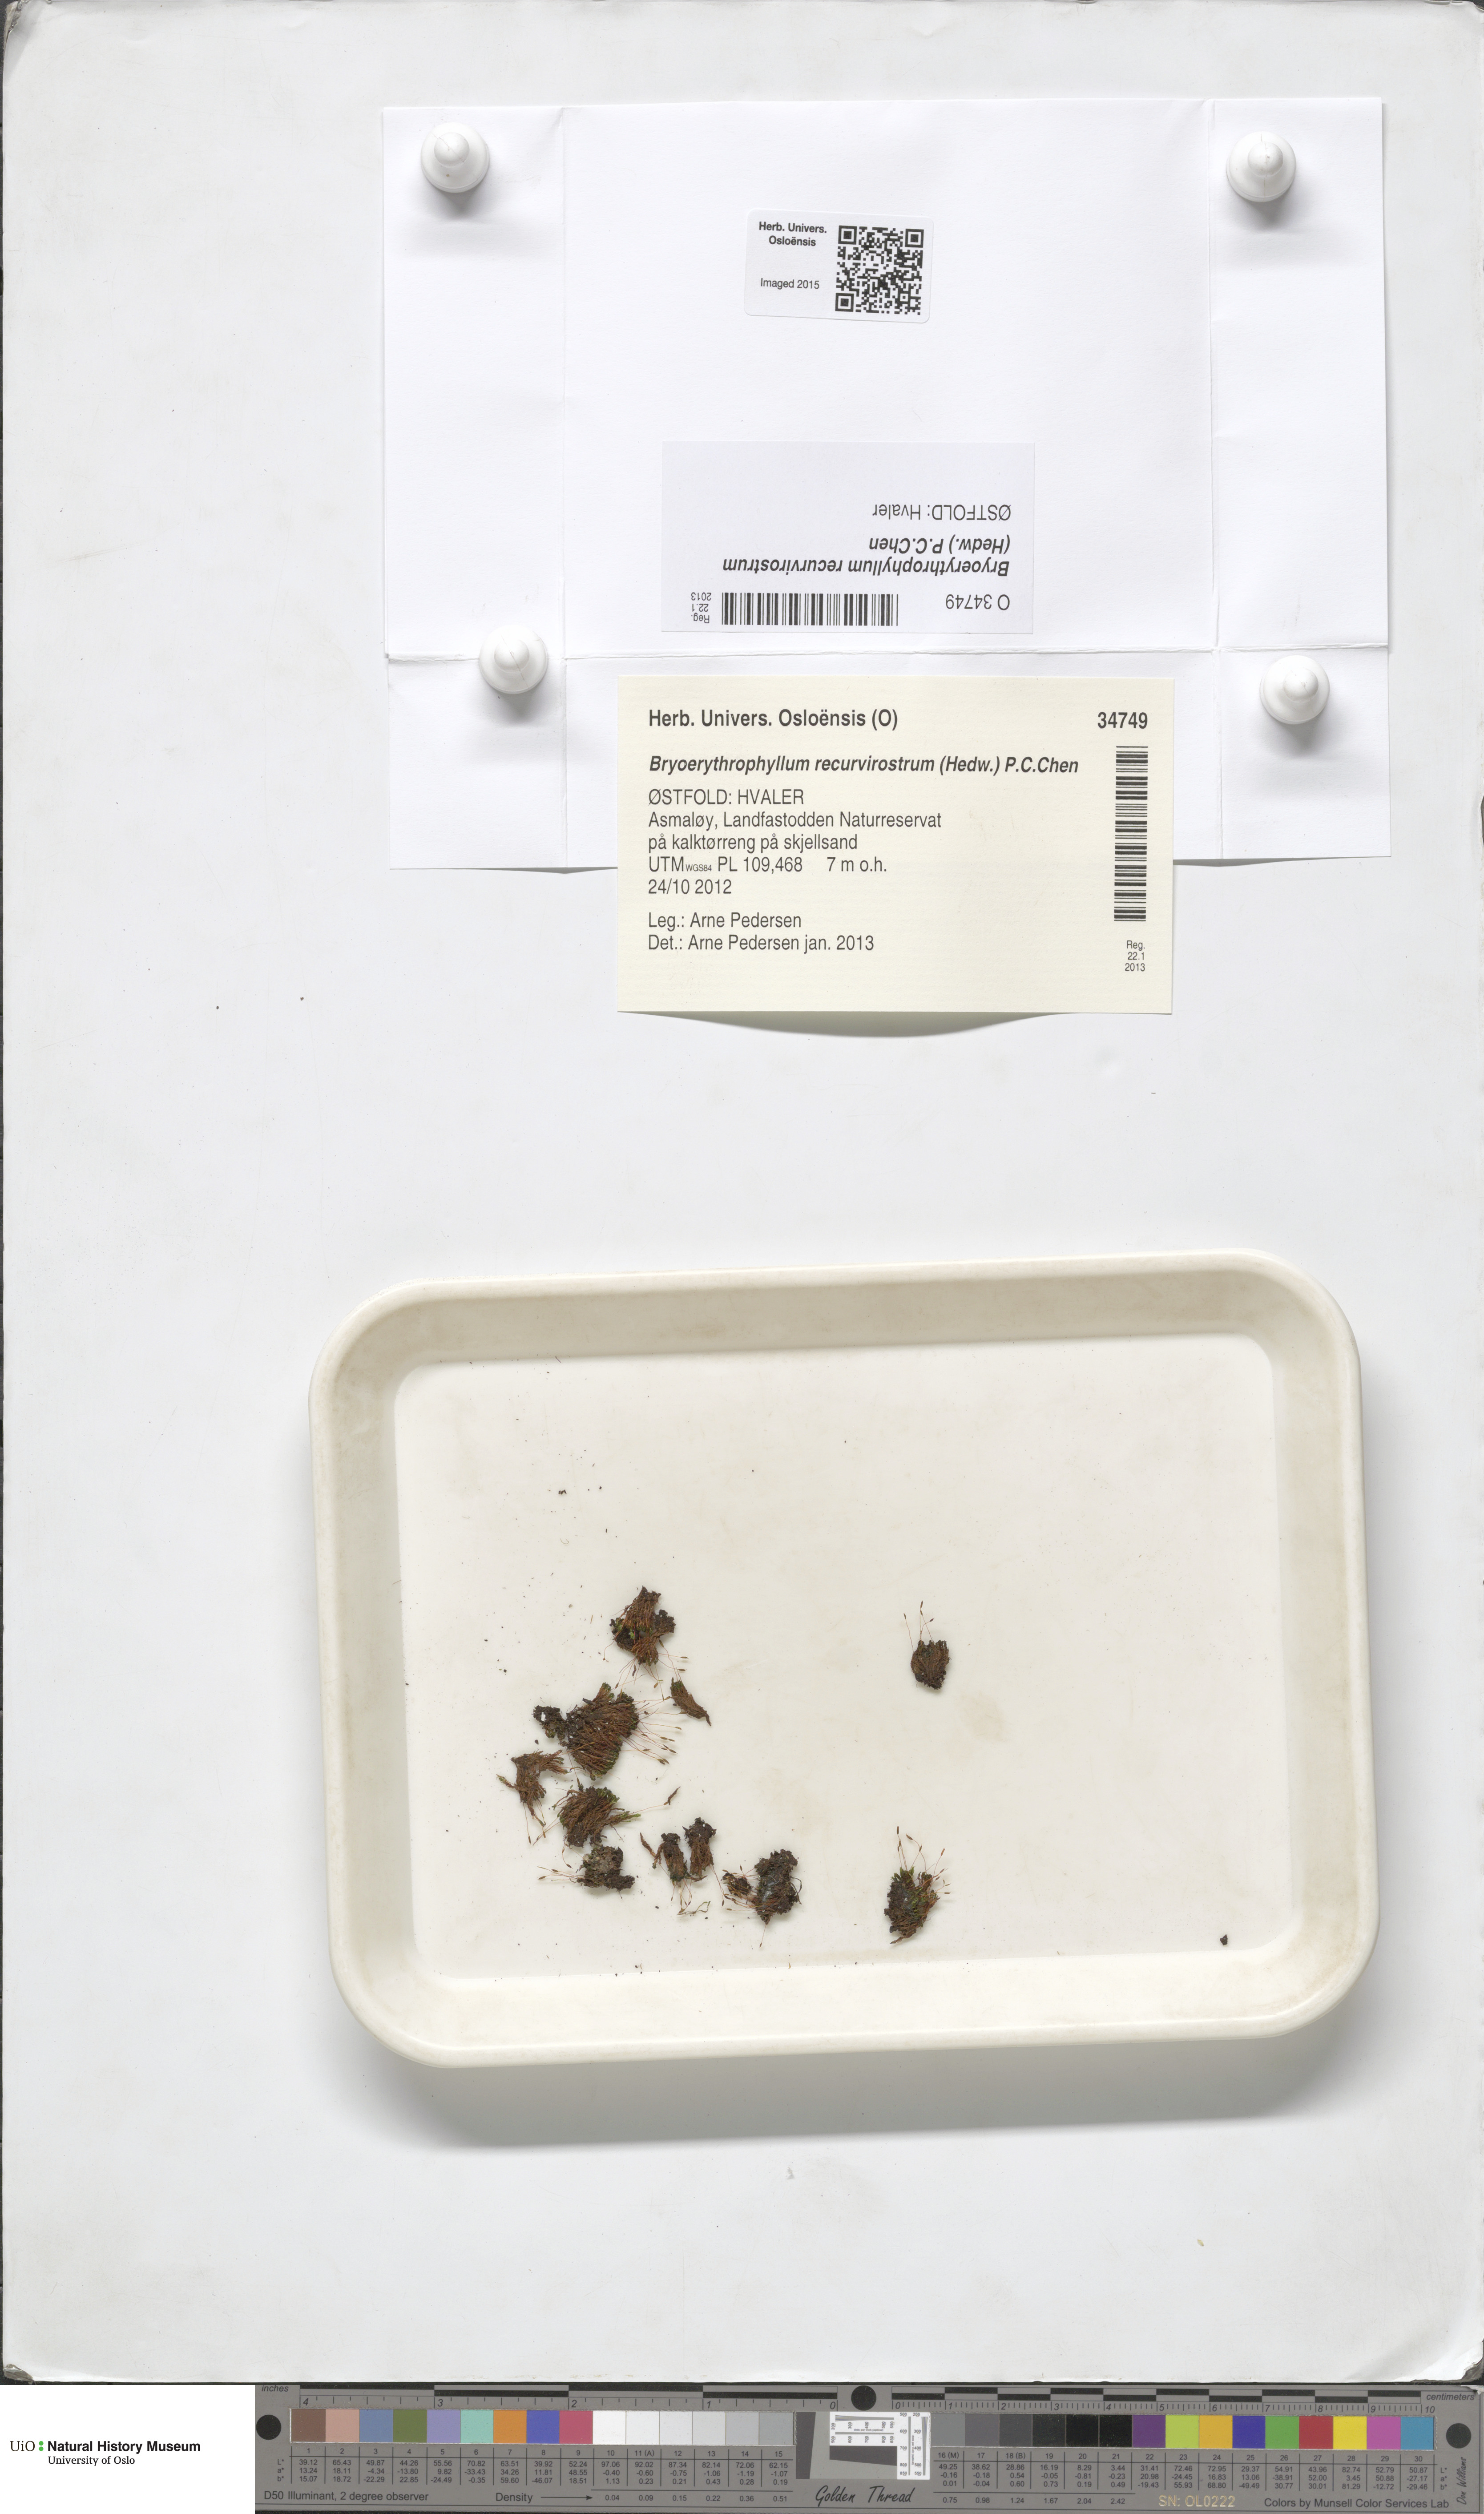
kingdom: Plantae
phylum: Bryophyta
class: Bryopsida
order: Pottiales
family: Pottiaceae
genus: Bryoerythrophyllum
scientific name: Bryoerythrophyllum recurvirostrum
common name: Red beard moss
